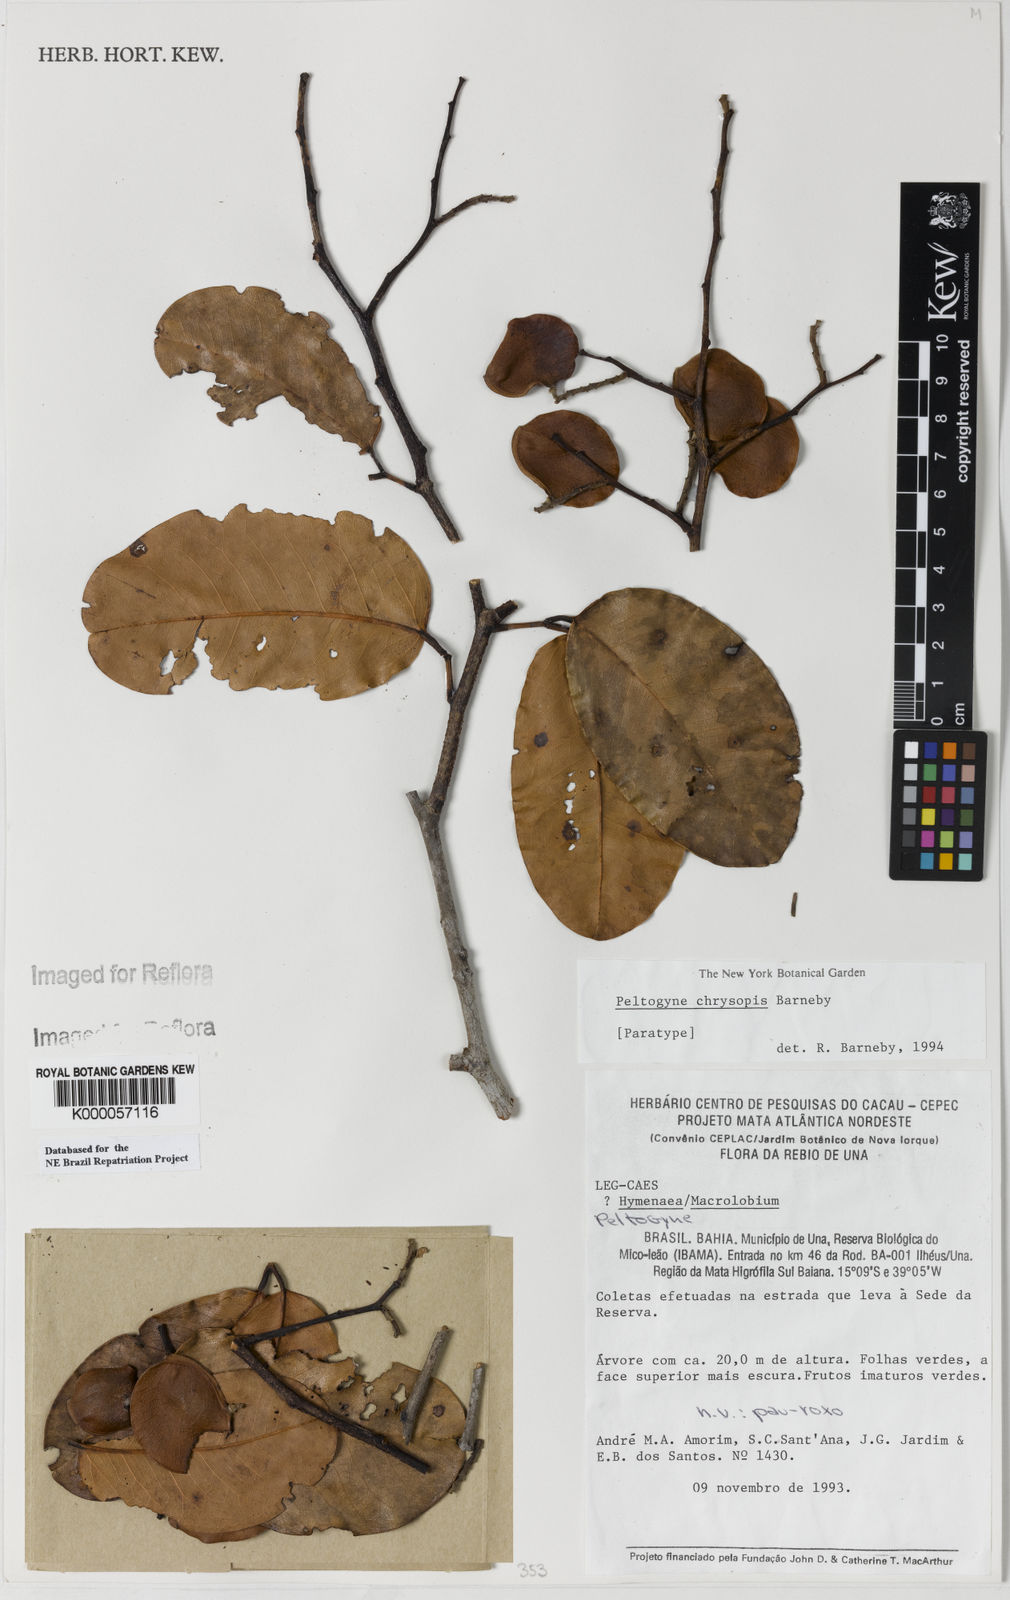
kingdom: Plantae
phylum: Tracheophyta
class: Magnoliopsida
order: Fabales
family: Fabaceae
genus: Peltogyne
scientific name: Peltogyne chrysopis
